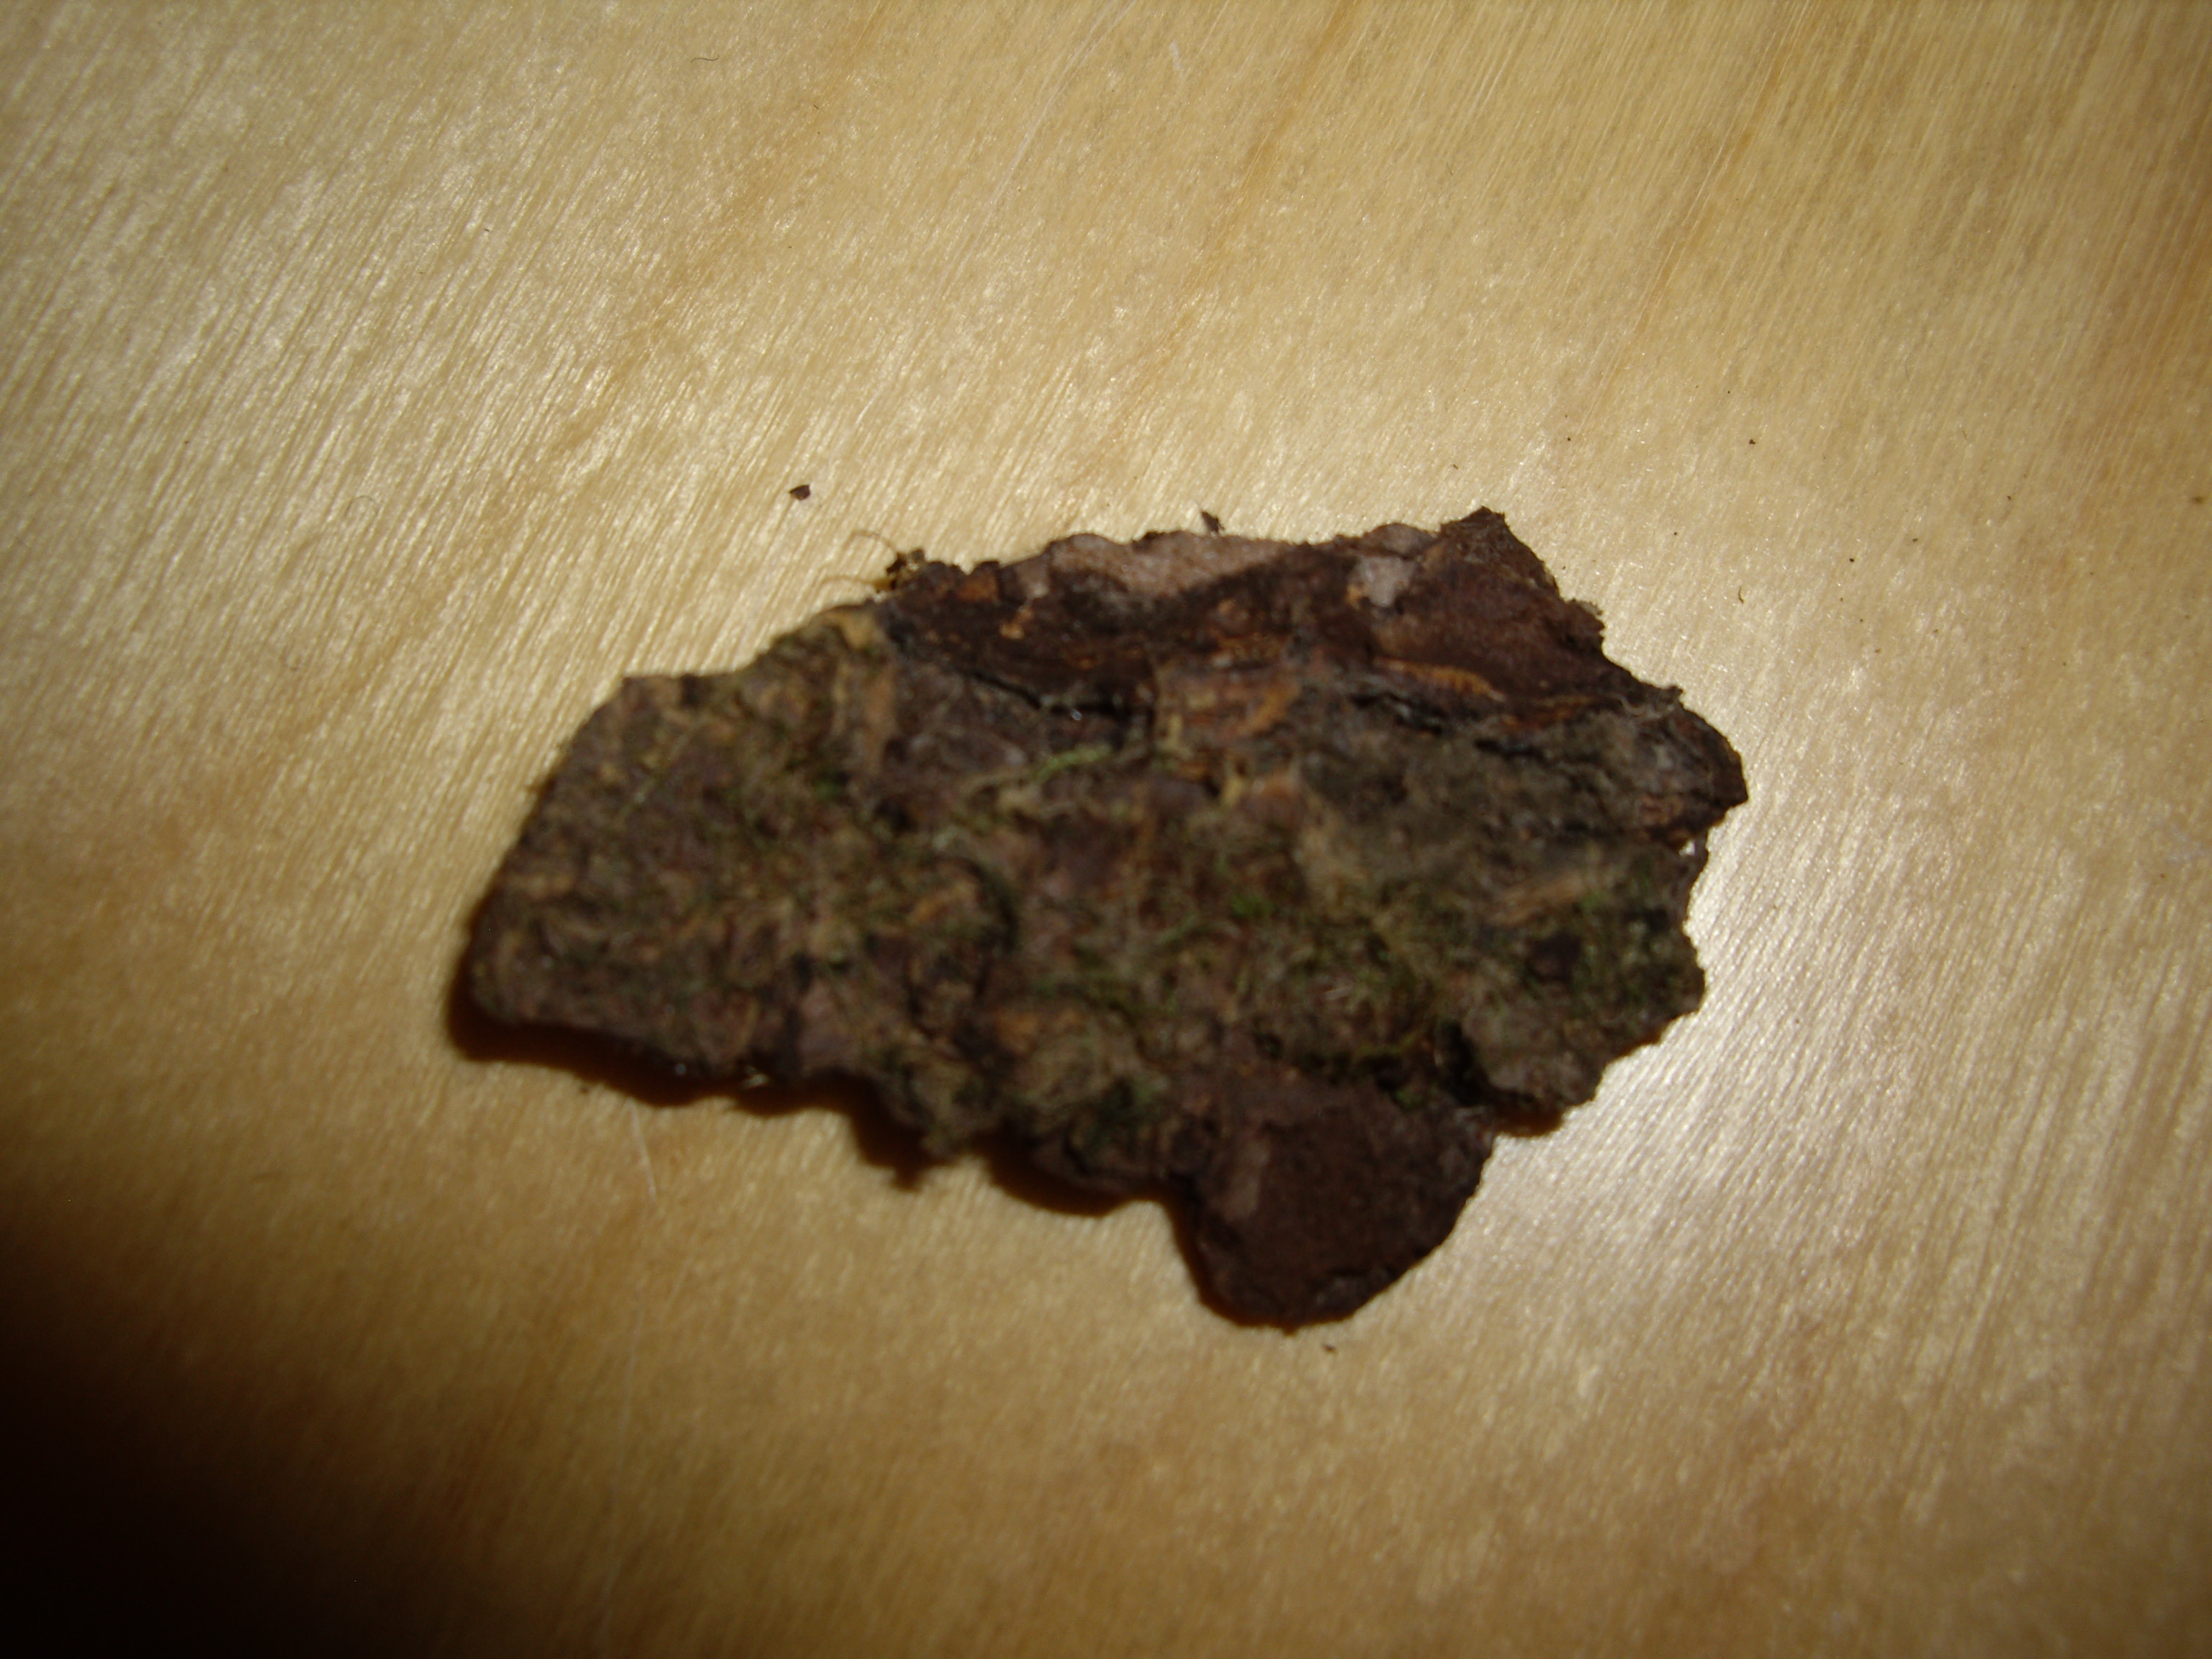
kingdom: Fungi
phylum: Basidiomycota
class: Agaricomycetes
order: Cantharellales
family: Botryobasidiaceae
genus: Botryobasidium
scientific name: Botryobasidium ellipsosporum
